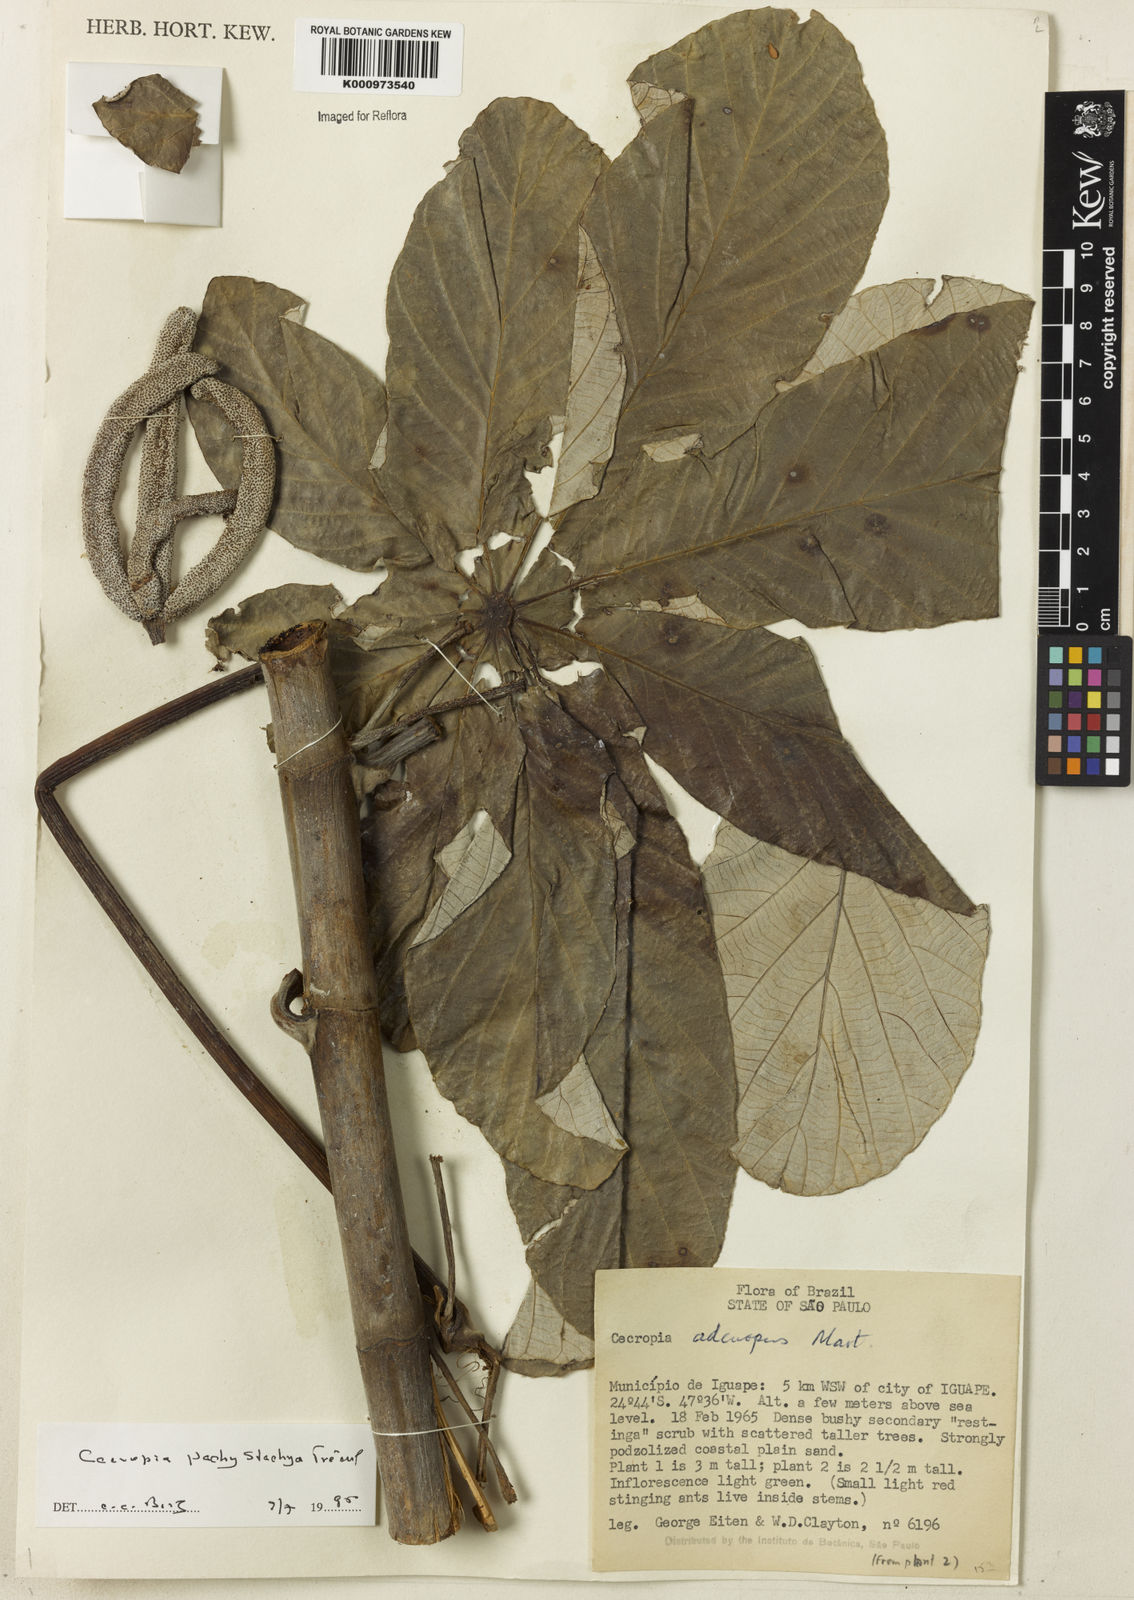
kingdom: Plantae
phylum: Tracheophyta
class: Magnoliopsida
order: Rosales
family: Urticaceae
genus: Cecropia
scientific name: Cecropia
